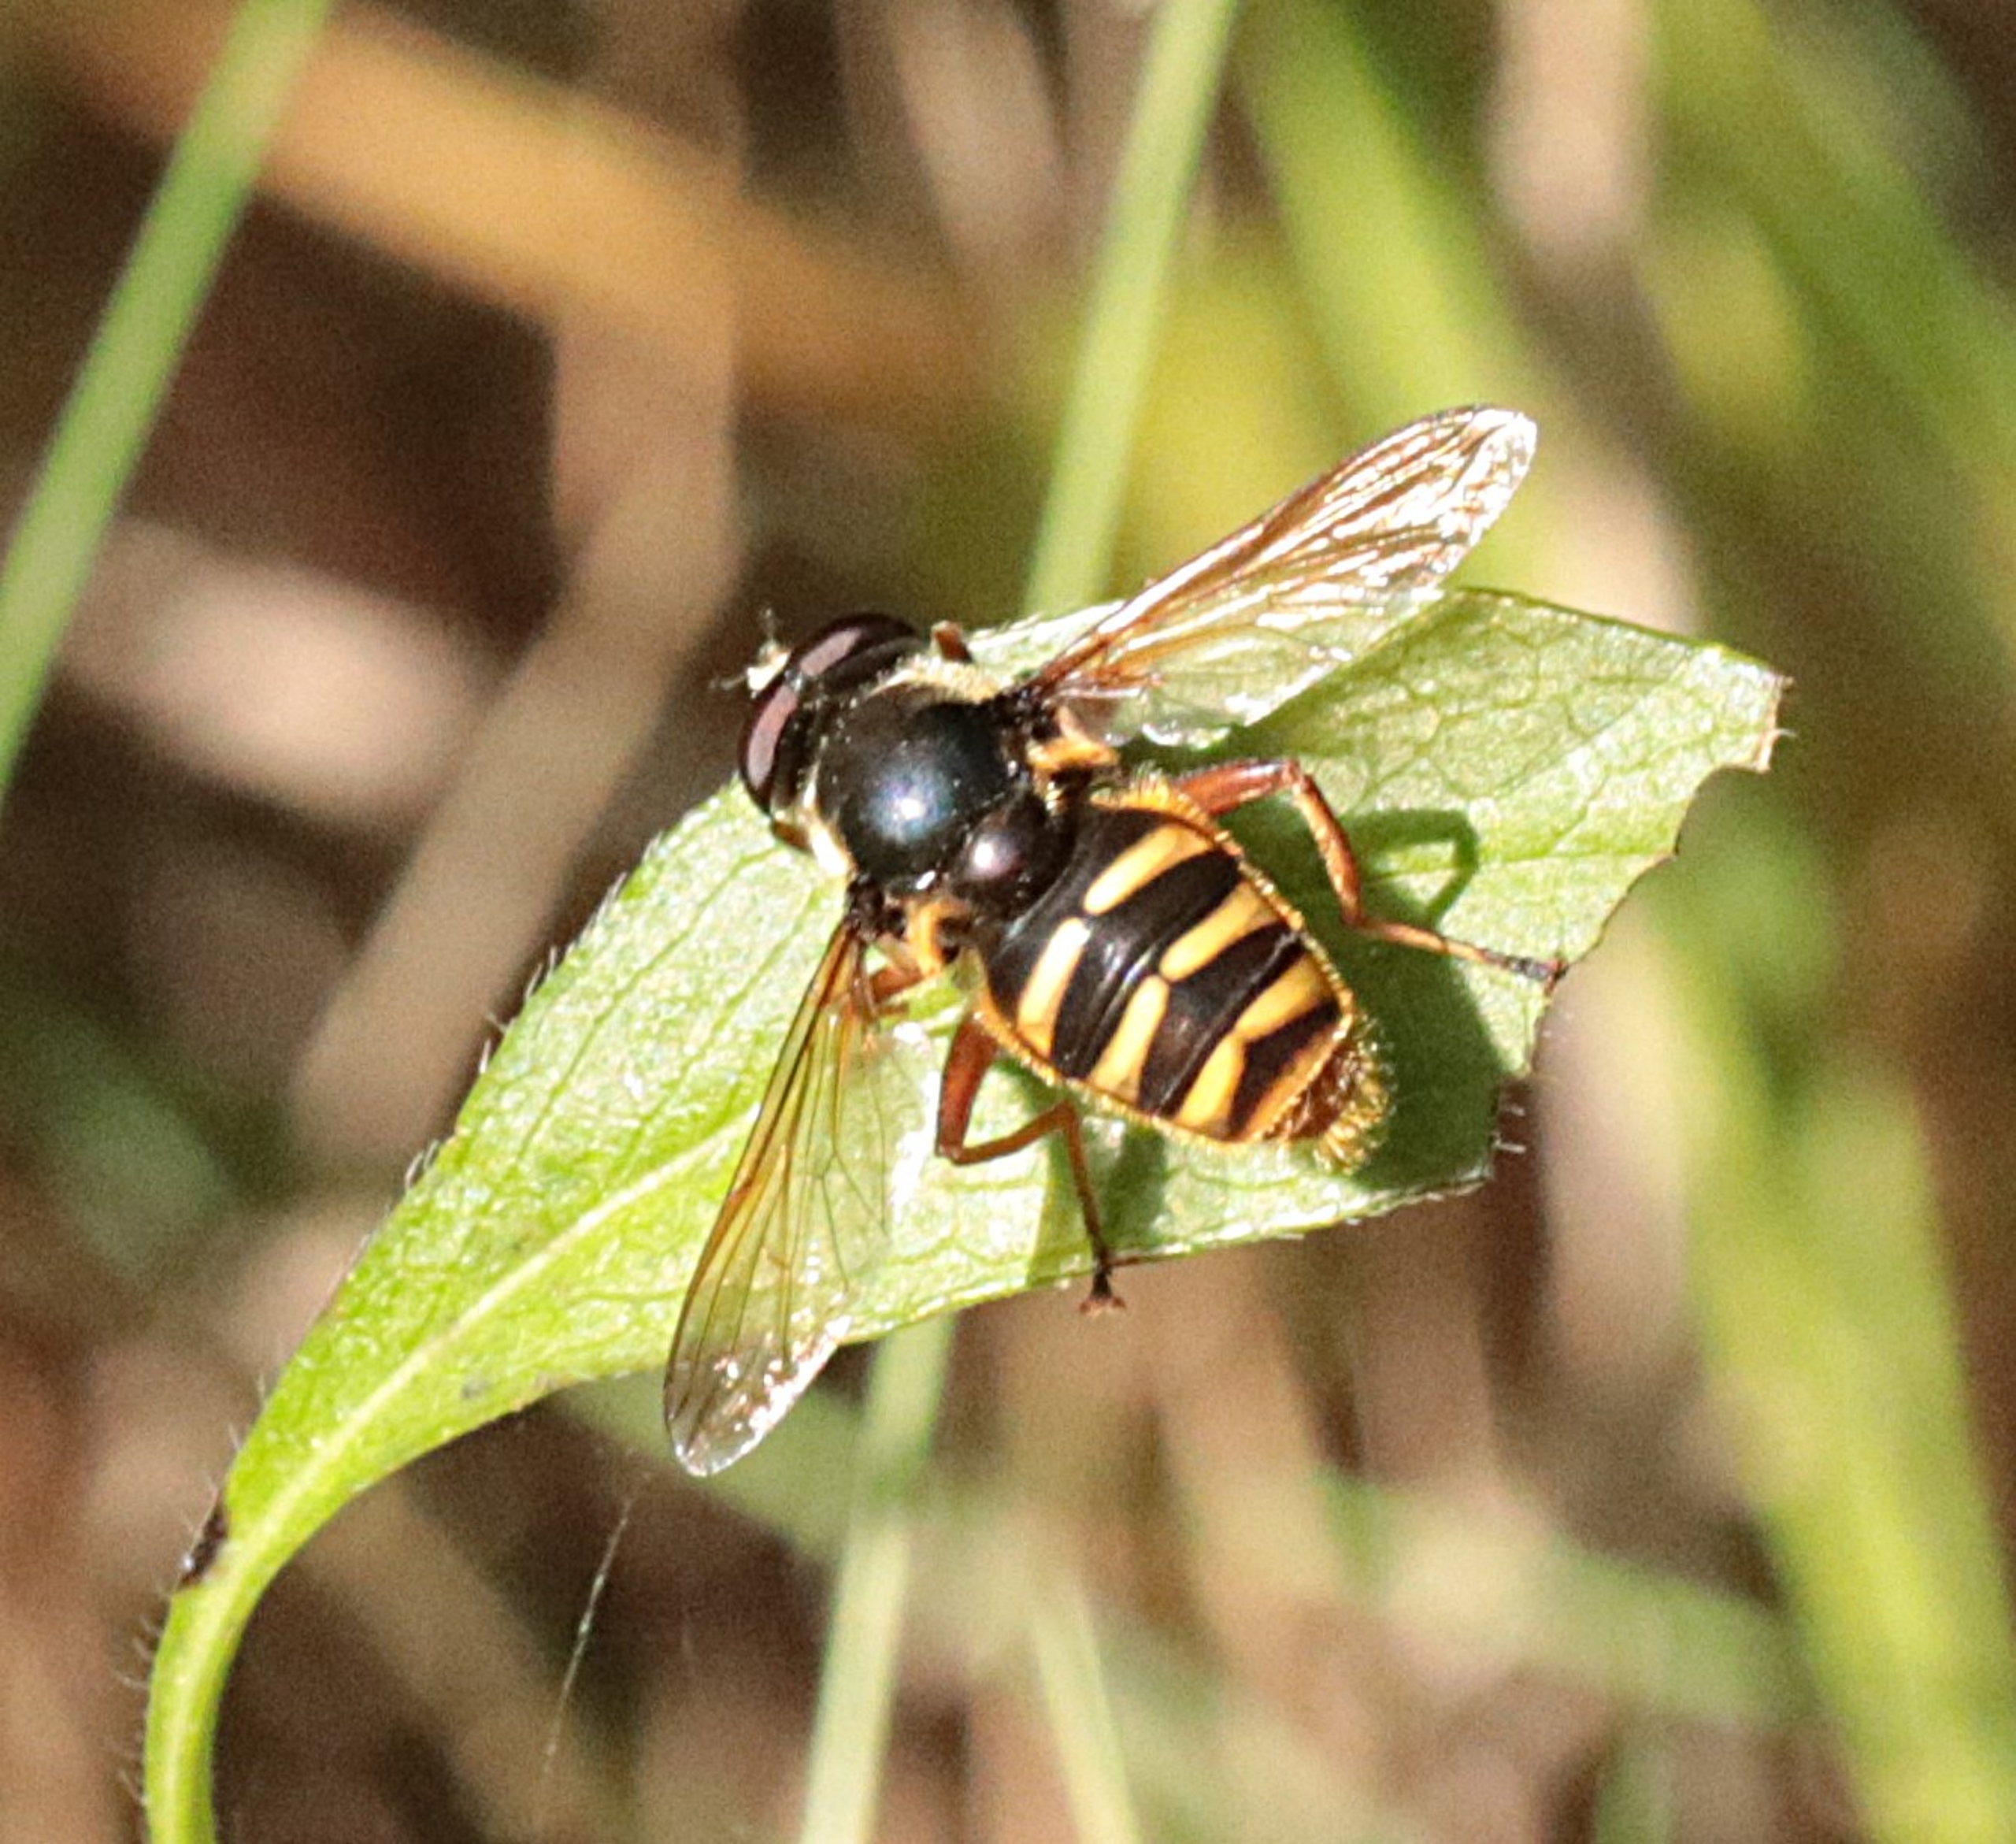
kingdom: Animalia
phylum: Arthropoda
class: Insecta
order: Diptera
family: Syrphidae
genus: Sericomyia
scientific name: Sericomyia silentis
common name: Tørve-silkesvirreflue
